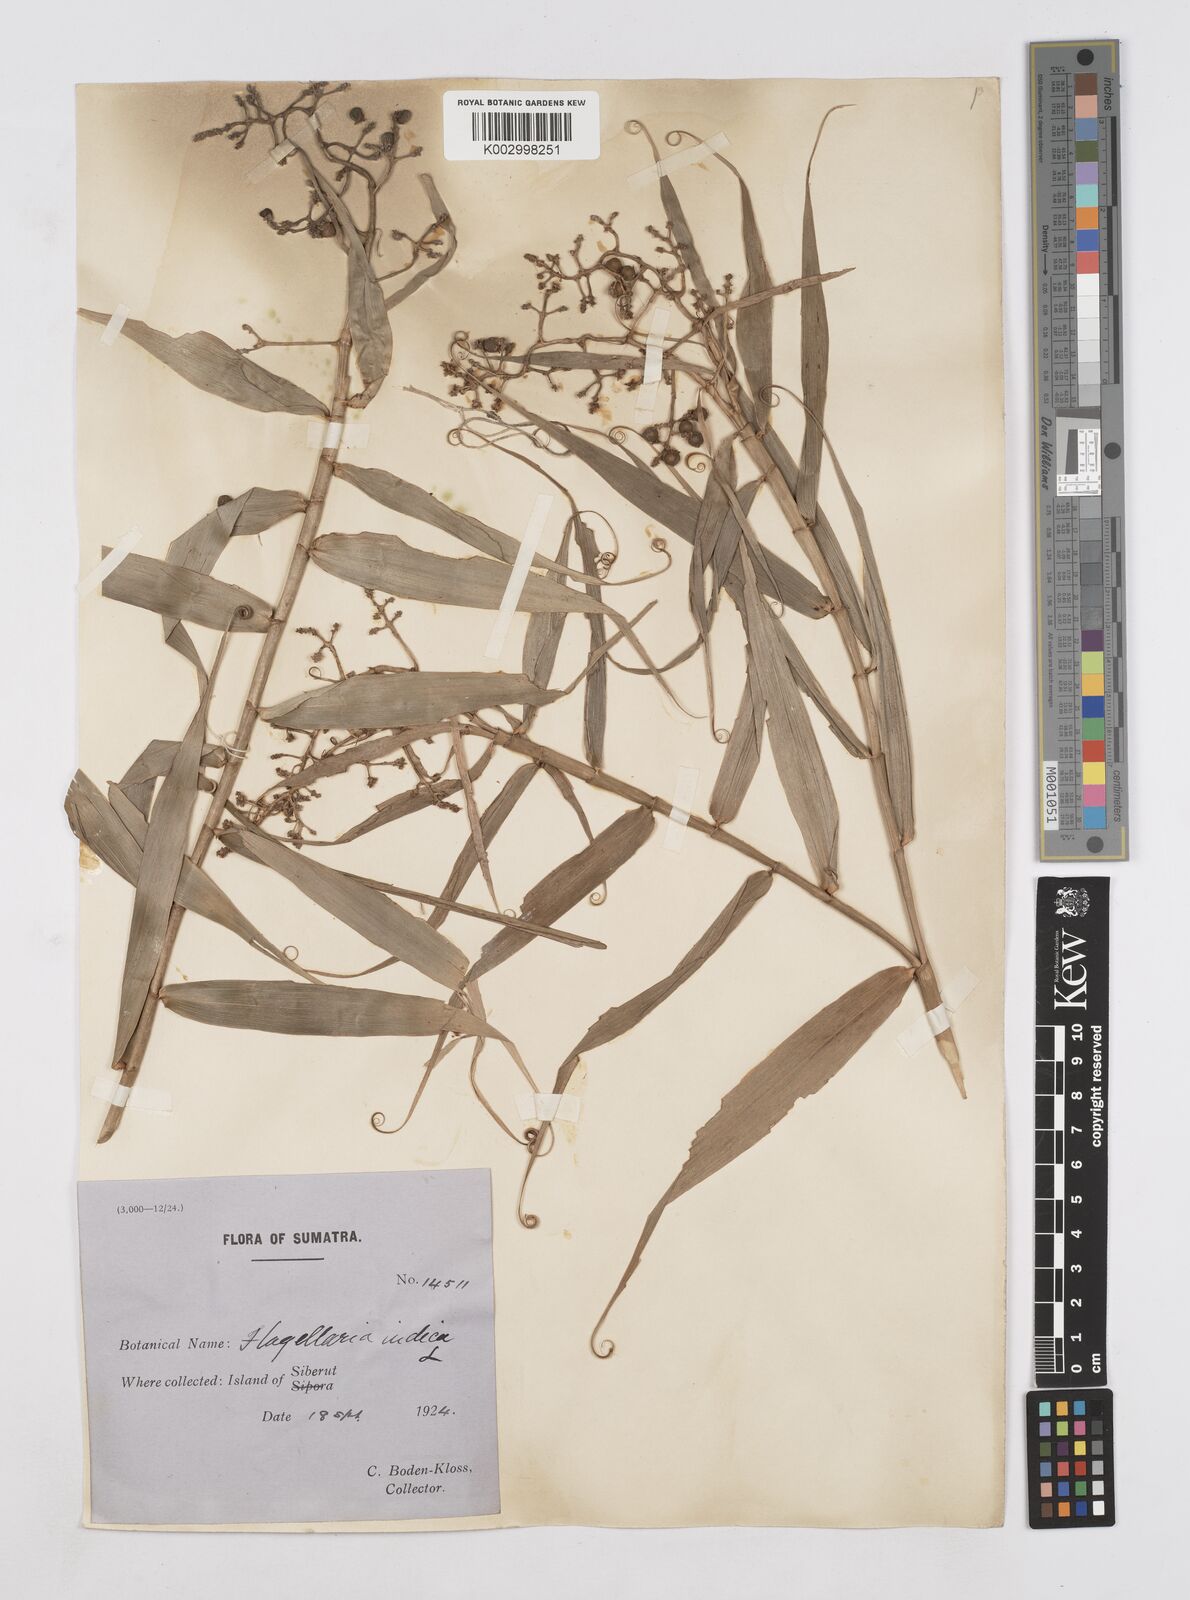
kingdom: Plantae
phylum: Tracheophyta
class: Liliopsida
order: Poales
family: Flagellariaceae
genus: Flagellaria
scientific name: Flagellaria indica
